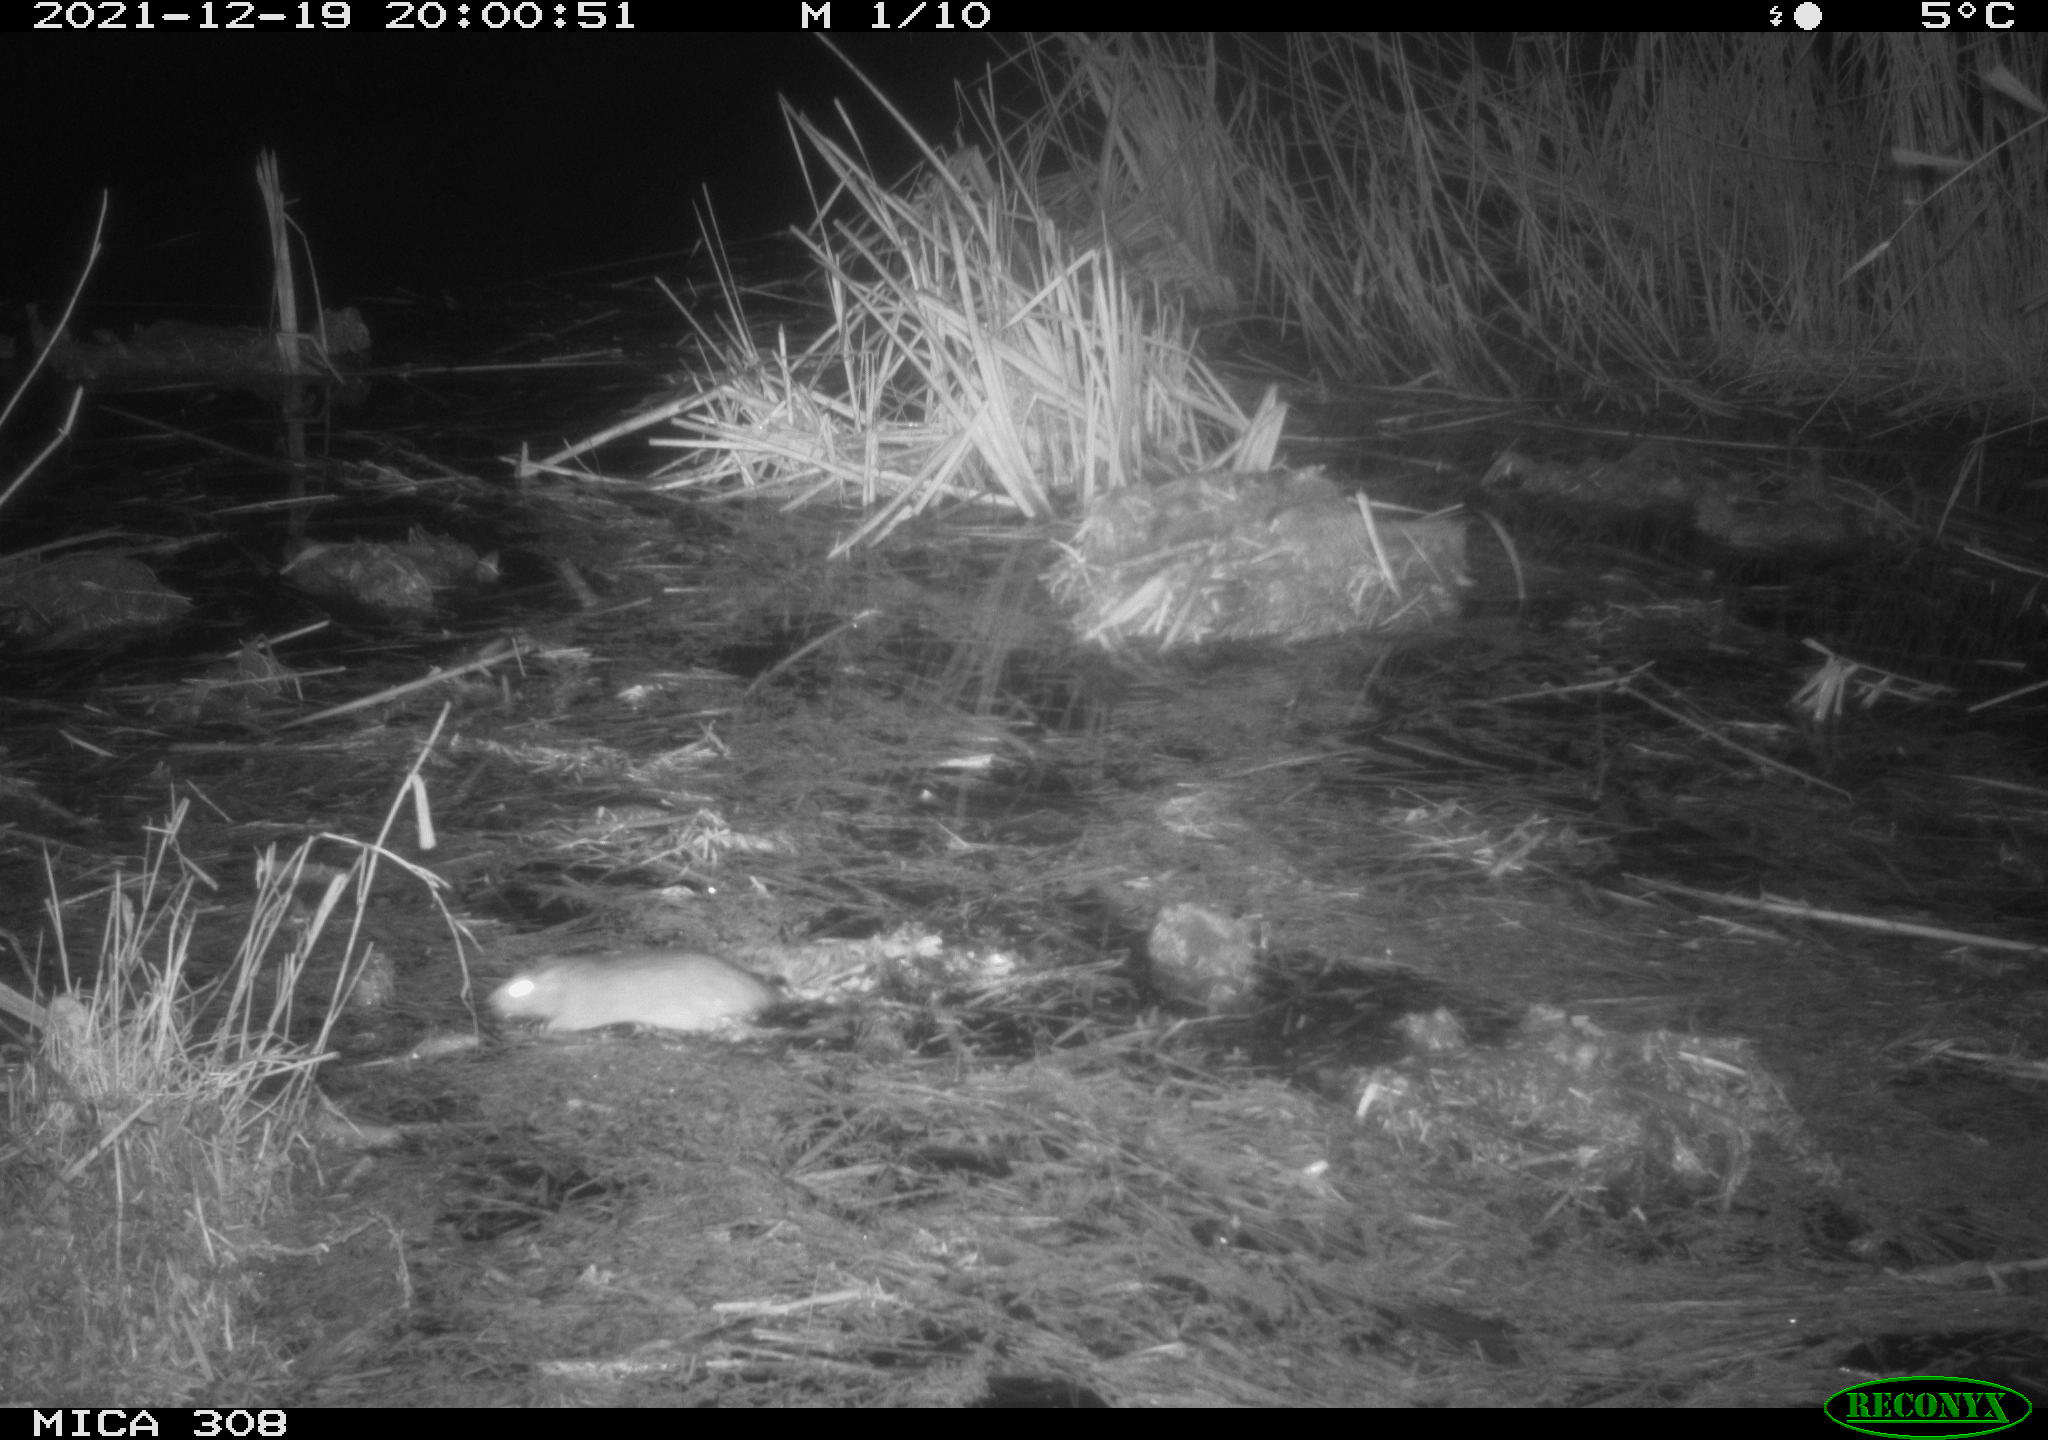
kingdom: Animalia
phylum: Chordata
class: Mammalia
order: Rodentia
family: Muridae
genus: Rattus
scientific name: Rattus norvegicus
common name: Brown rat
